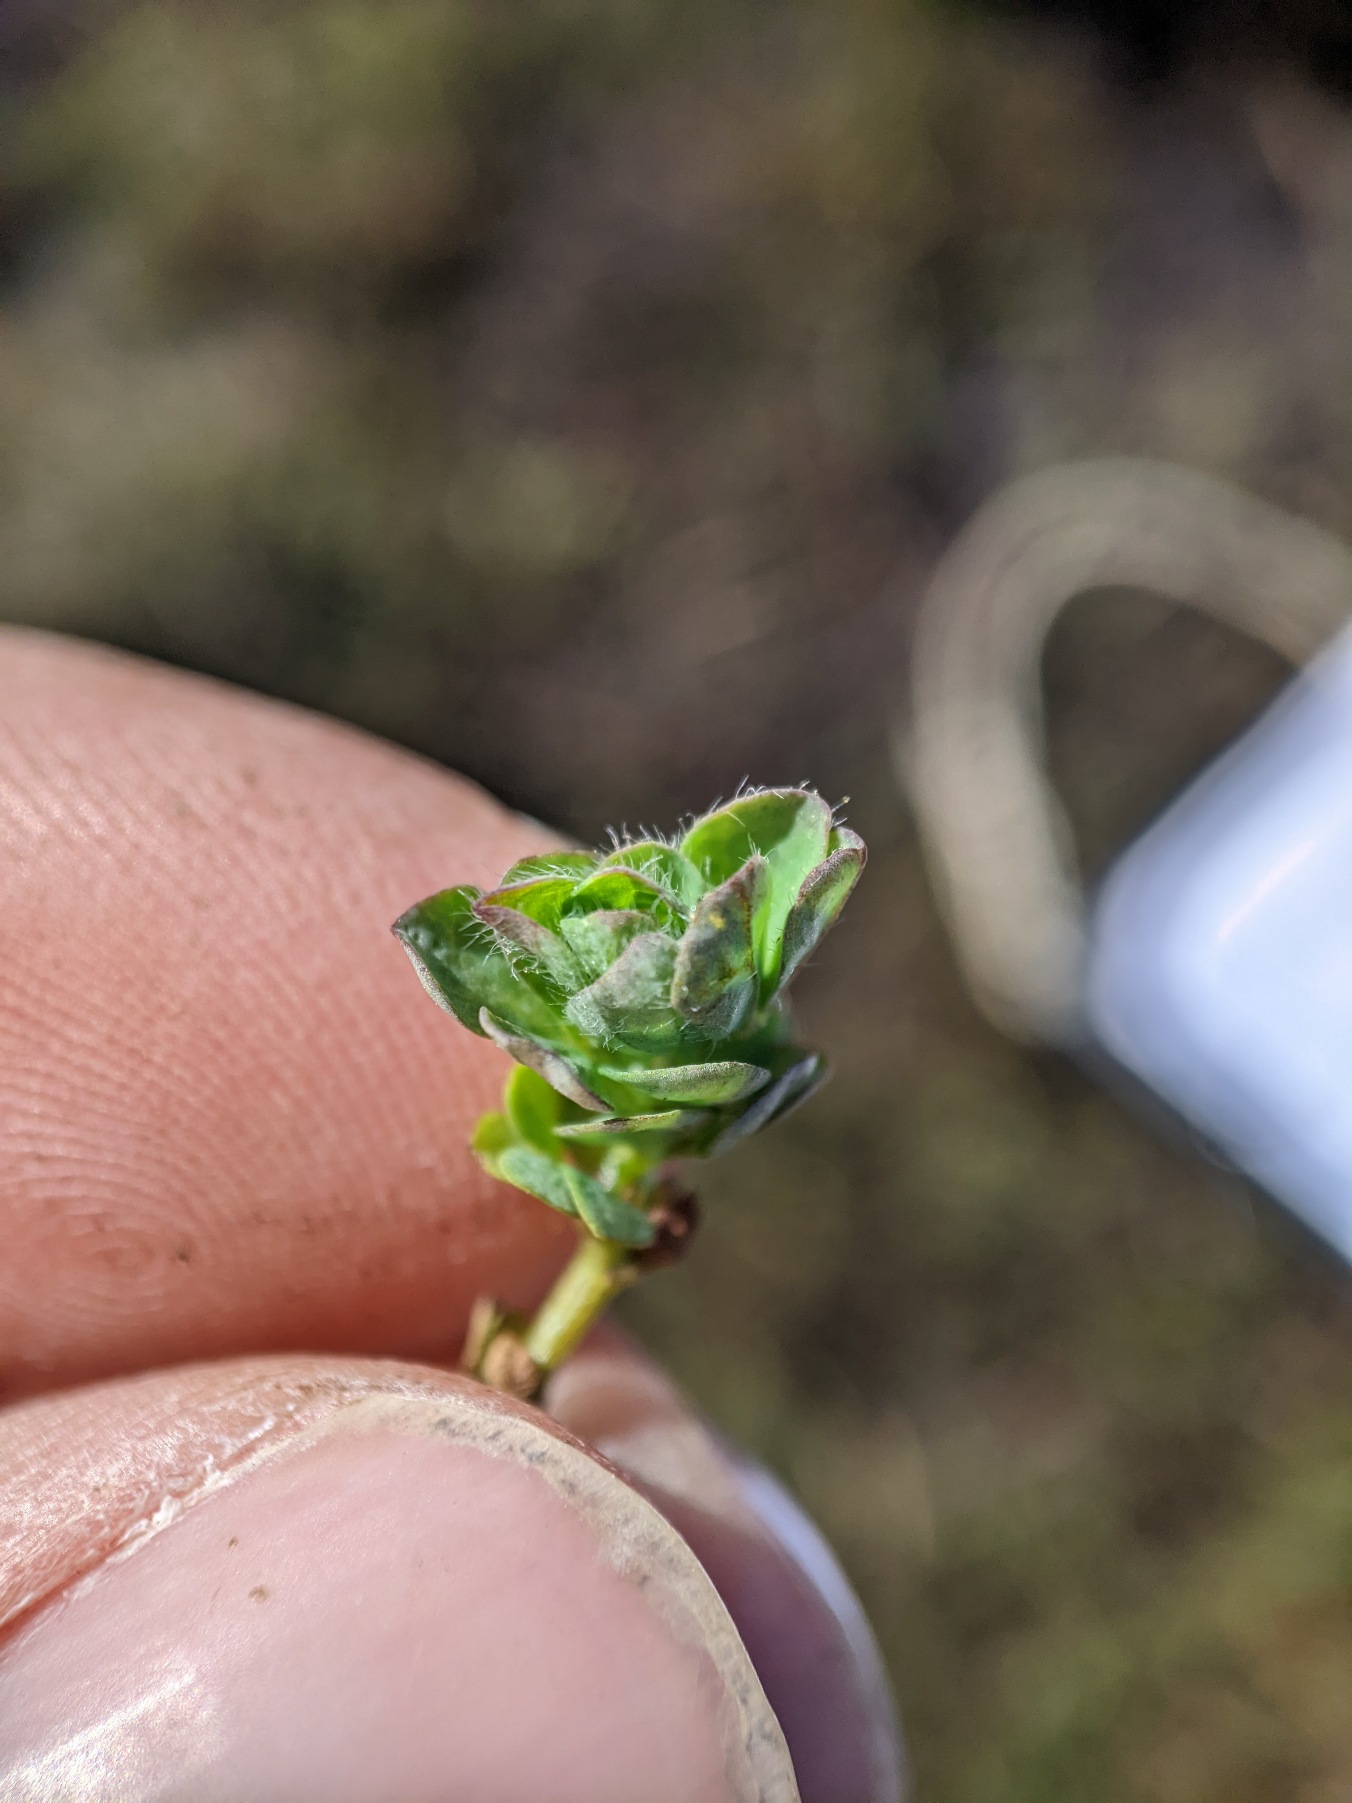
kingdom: Plantae
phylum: Tracheophyta
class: Magnoliopsida
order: Fabales
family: Fabaceae
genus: Lotus
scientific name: Lotus pedunculatus
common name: Klit-kællingetand
